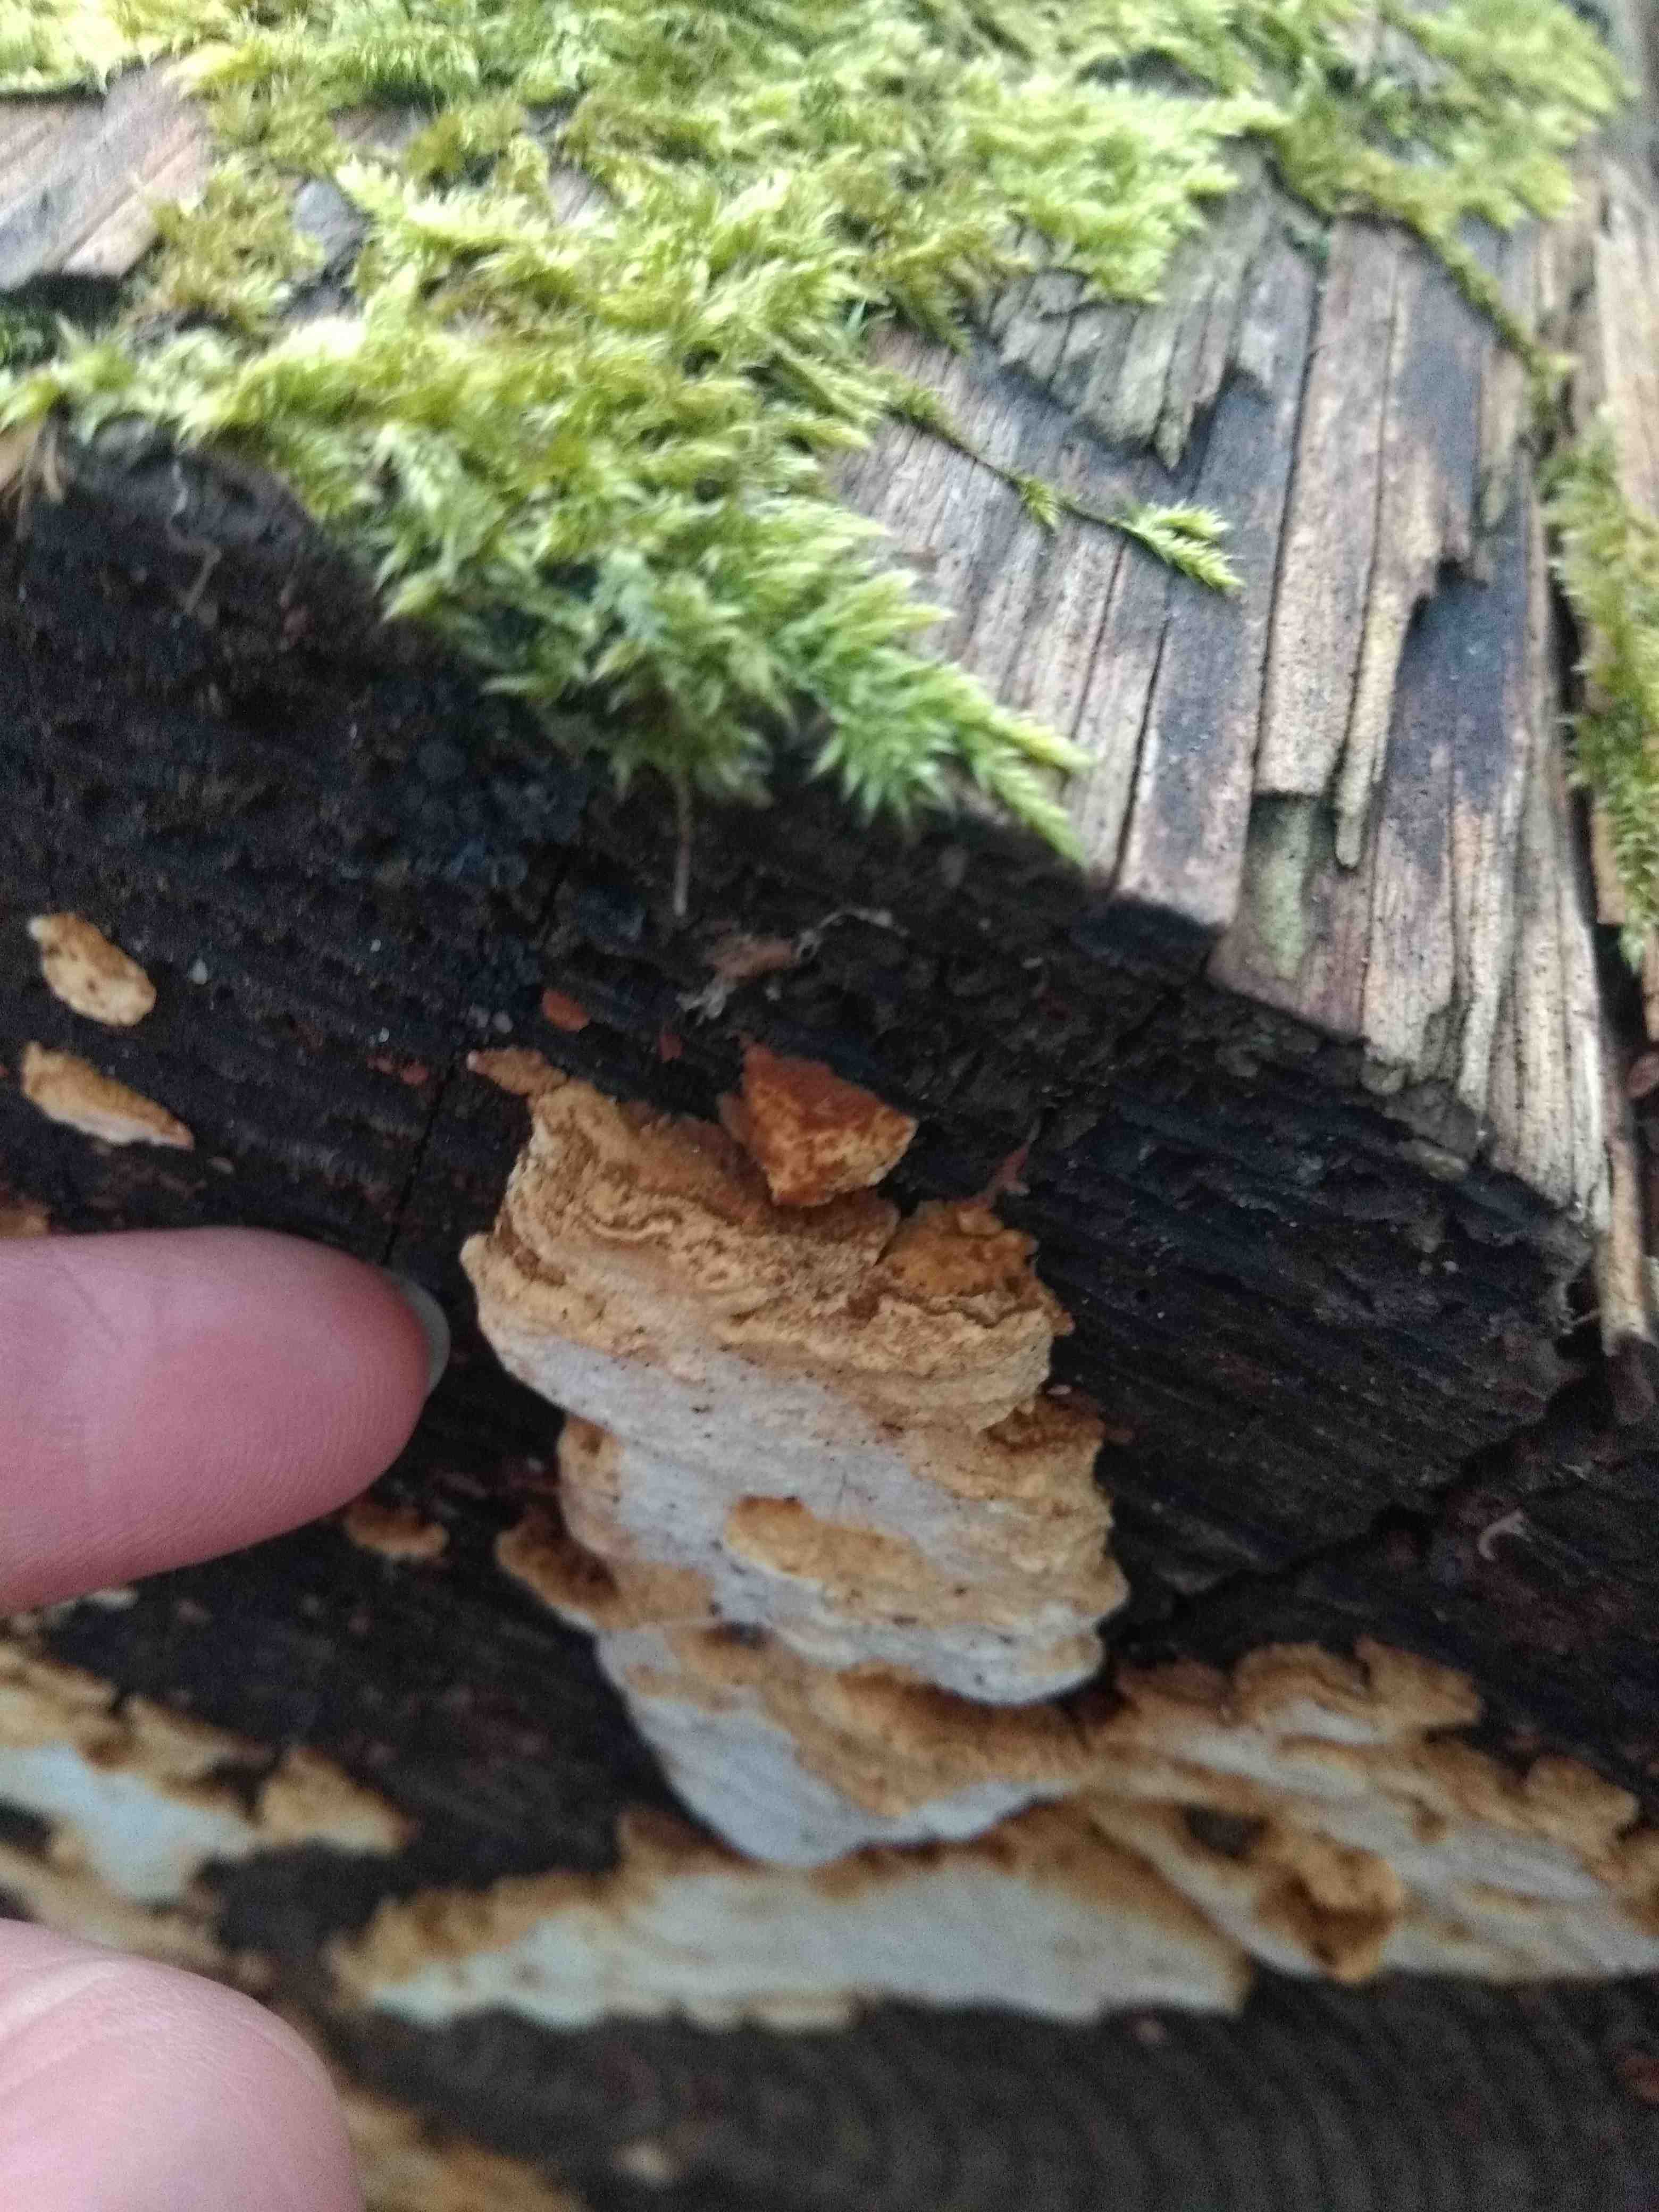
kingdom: Fungi
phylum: Basidiomycota
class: Agaricomycetes
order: Polyporales
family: Fomitopsidaceae
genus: Neoantrodia
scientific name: Neoantrodia serialis
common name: række-sejporesvamp
